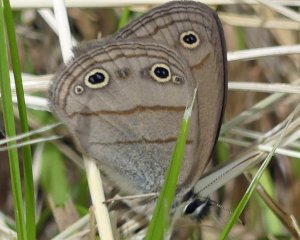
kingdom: Animalia
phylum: Arthropoda
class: Insecta
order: Lepidoptera
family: Nymphalidae
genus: Euptychia
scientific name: Euptychia cymela
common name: Little Wood Satyr
